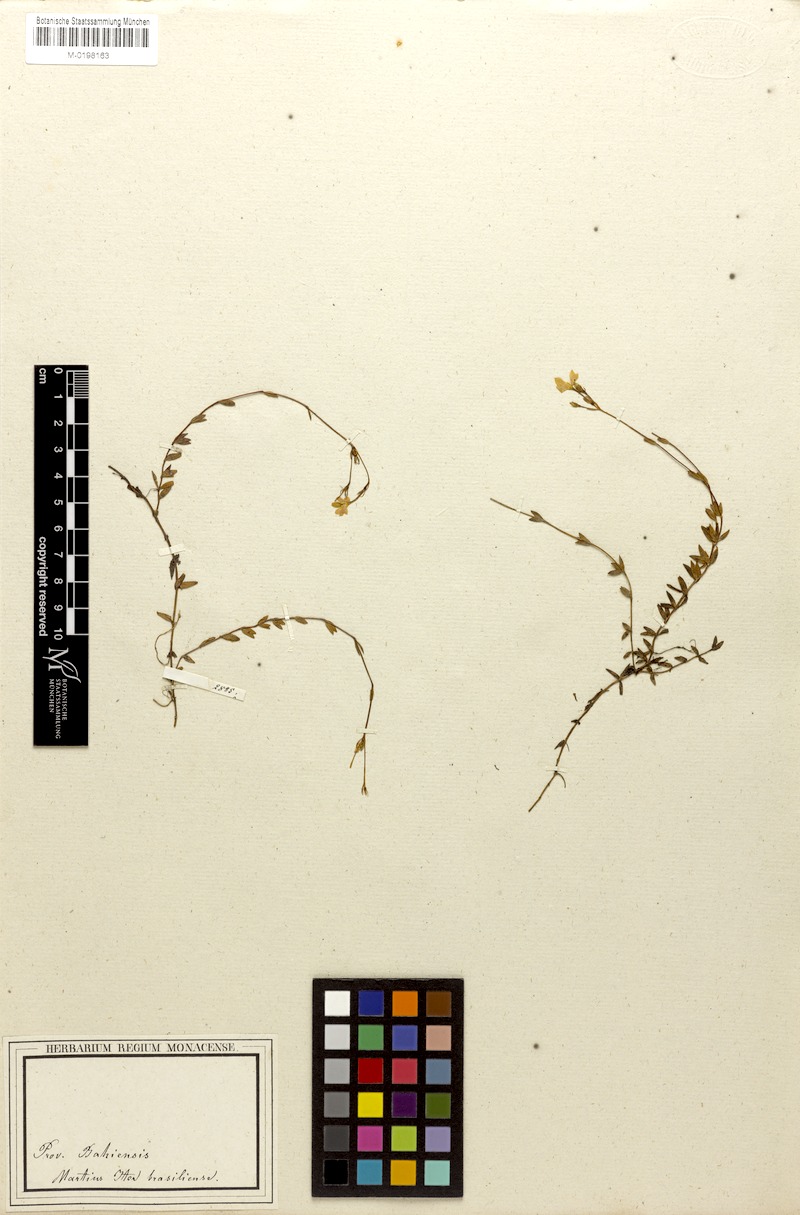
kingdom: Plantae
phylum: Tracheophyta
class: Magnoliopsida
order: Gentianales
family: Rubiaceae
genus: Limnosipanea
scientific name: Limnosipanea erythraeoides
